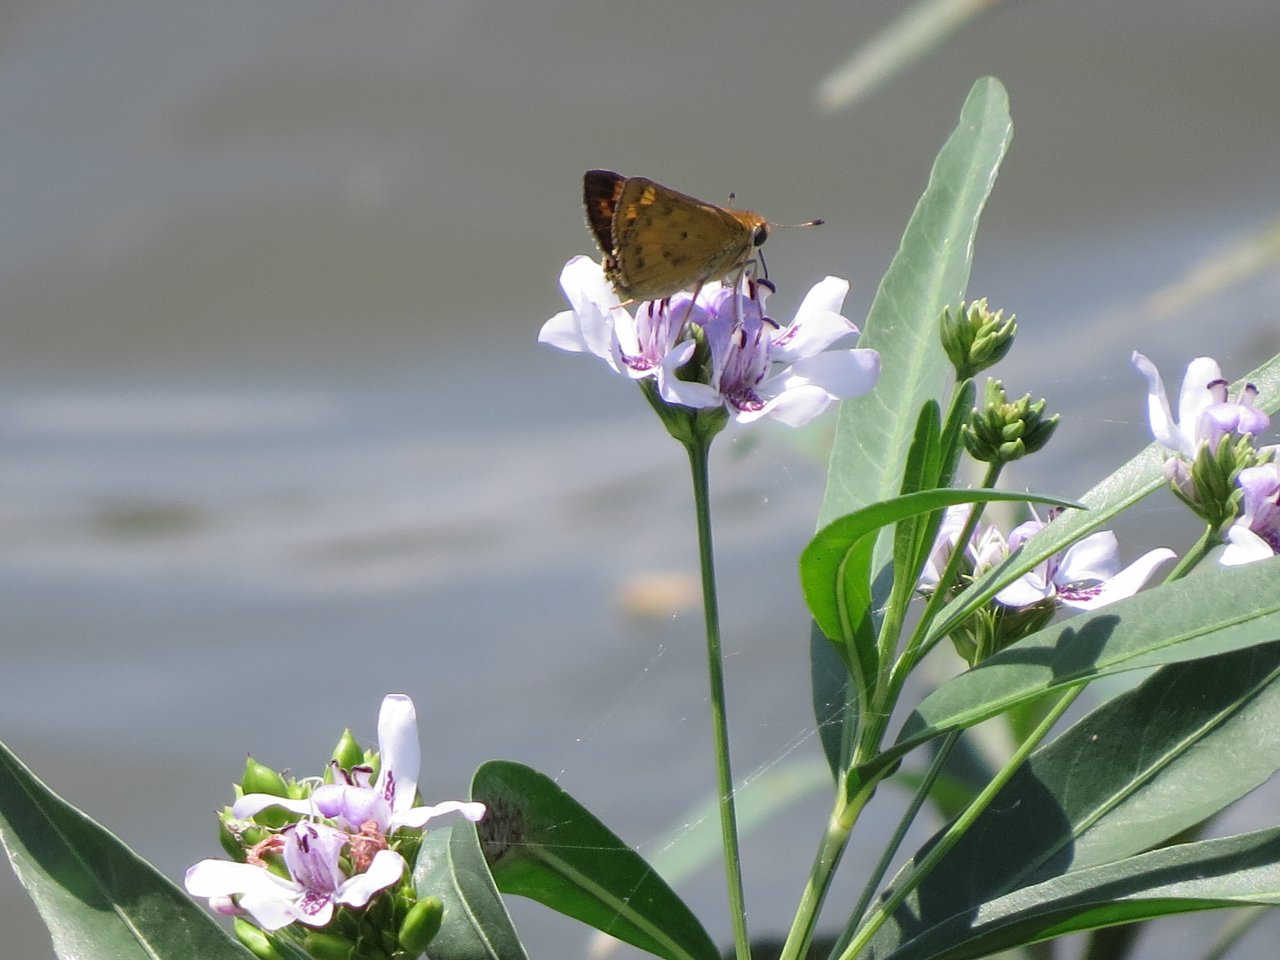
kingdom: Animalia
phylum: Arthropoda
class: Insecta
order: Lepidoptera
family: Hesperiidae
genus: Hylephila
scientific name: Hylephila phyleus
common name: Fiery Skipper
